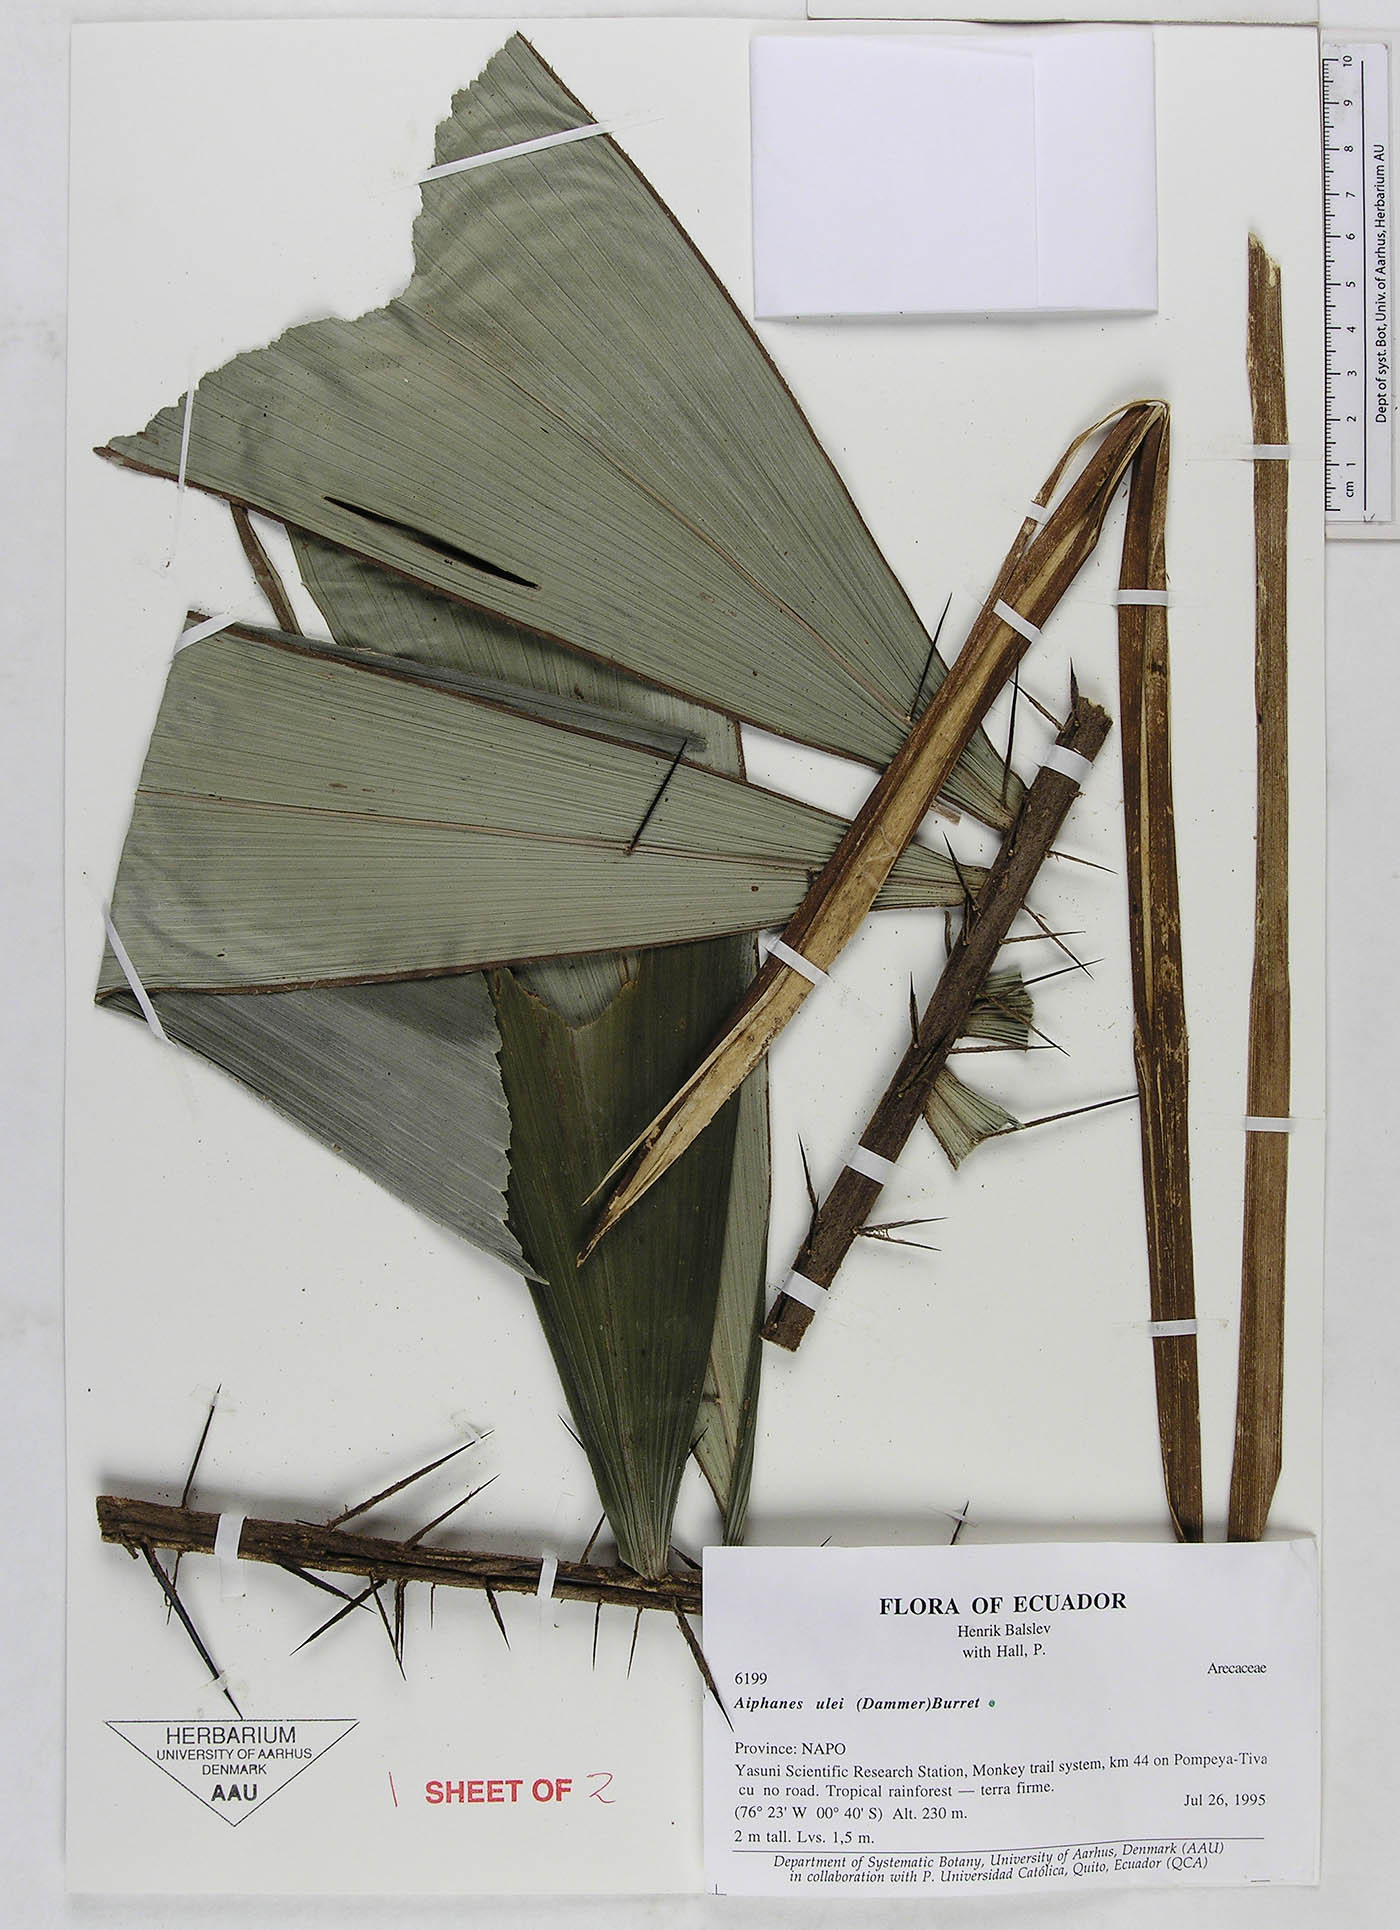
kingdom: Plantae
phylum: Tracheophyta
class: Liliopsida
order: Arecales
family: Arecaceae
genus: Aiphanes
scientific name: Aiphanes ulei
